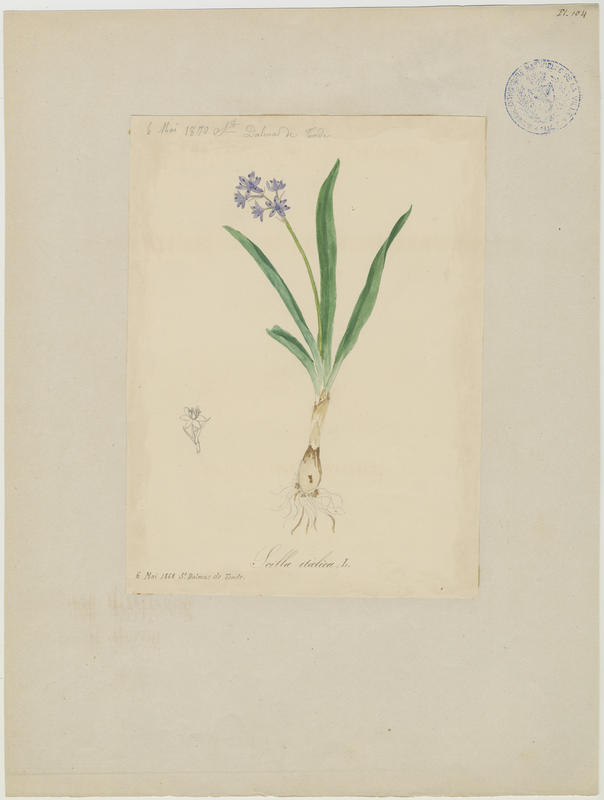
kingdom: Plantae
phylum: Tracheophyta
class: Liliopsida
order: Asparagales
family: Asparagaceae
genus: Hyacinthoides
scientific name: Hyacinthoides italica
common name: Italian bluebell
